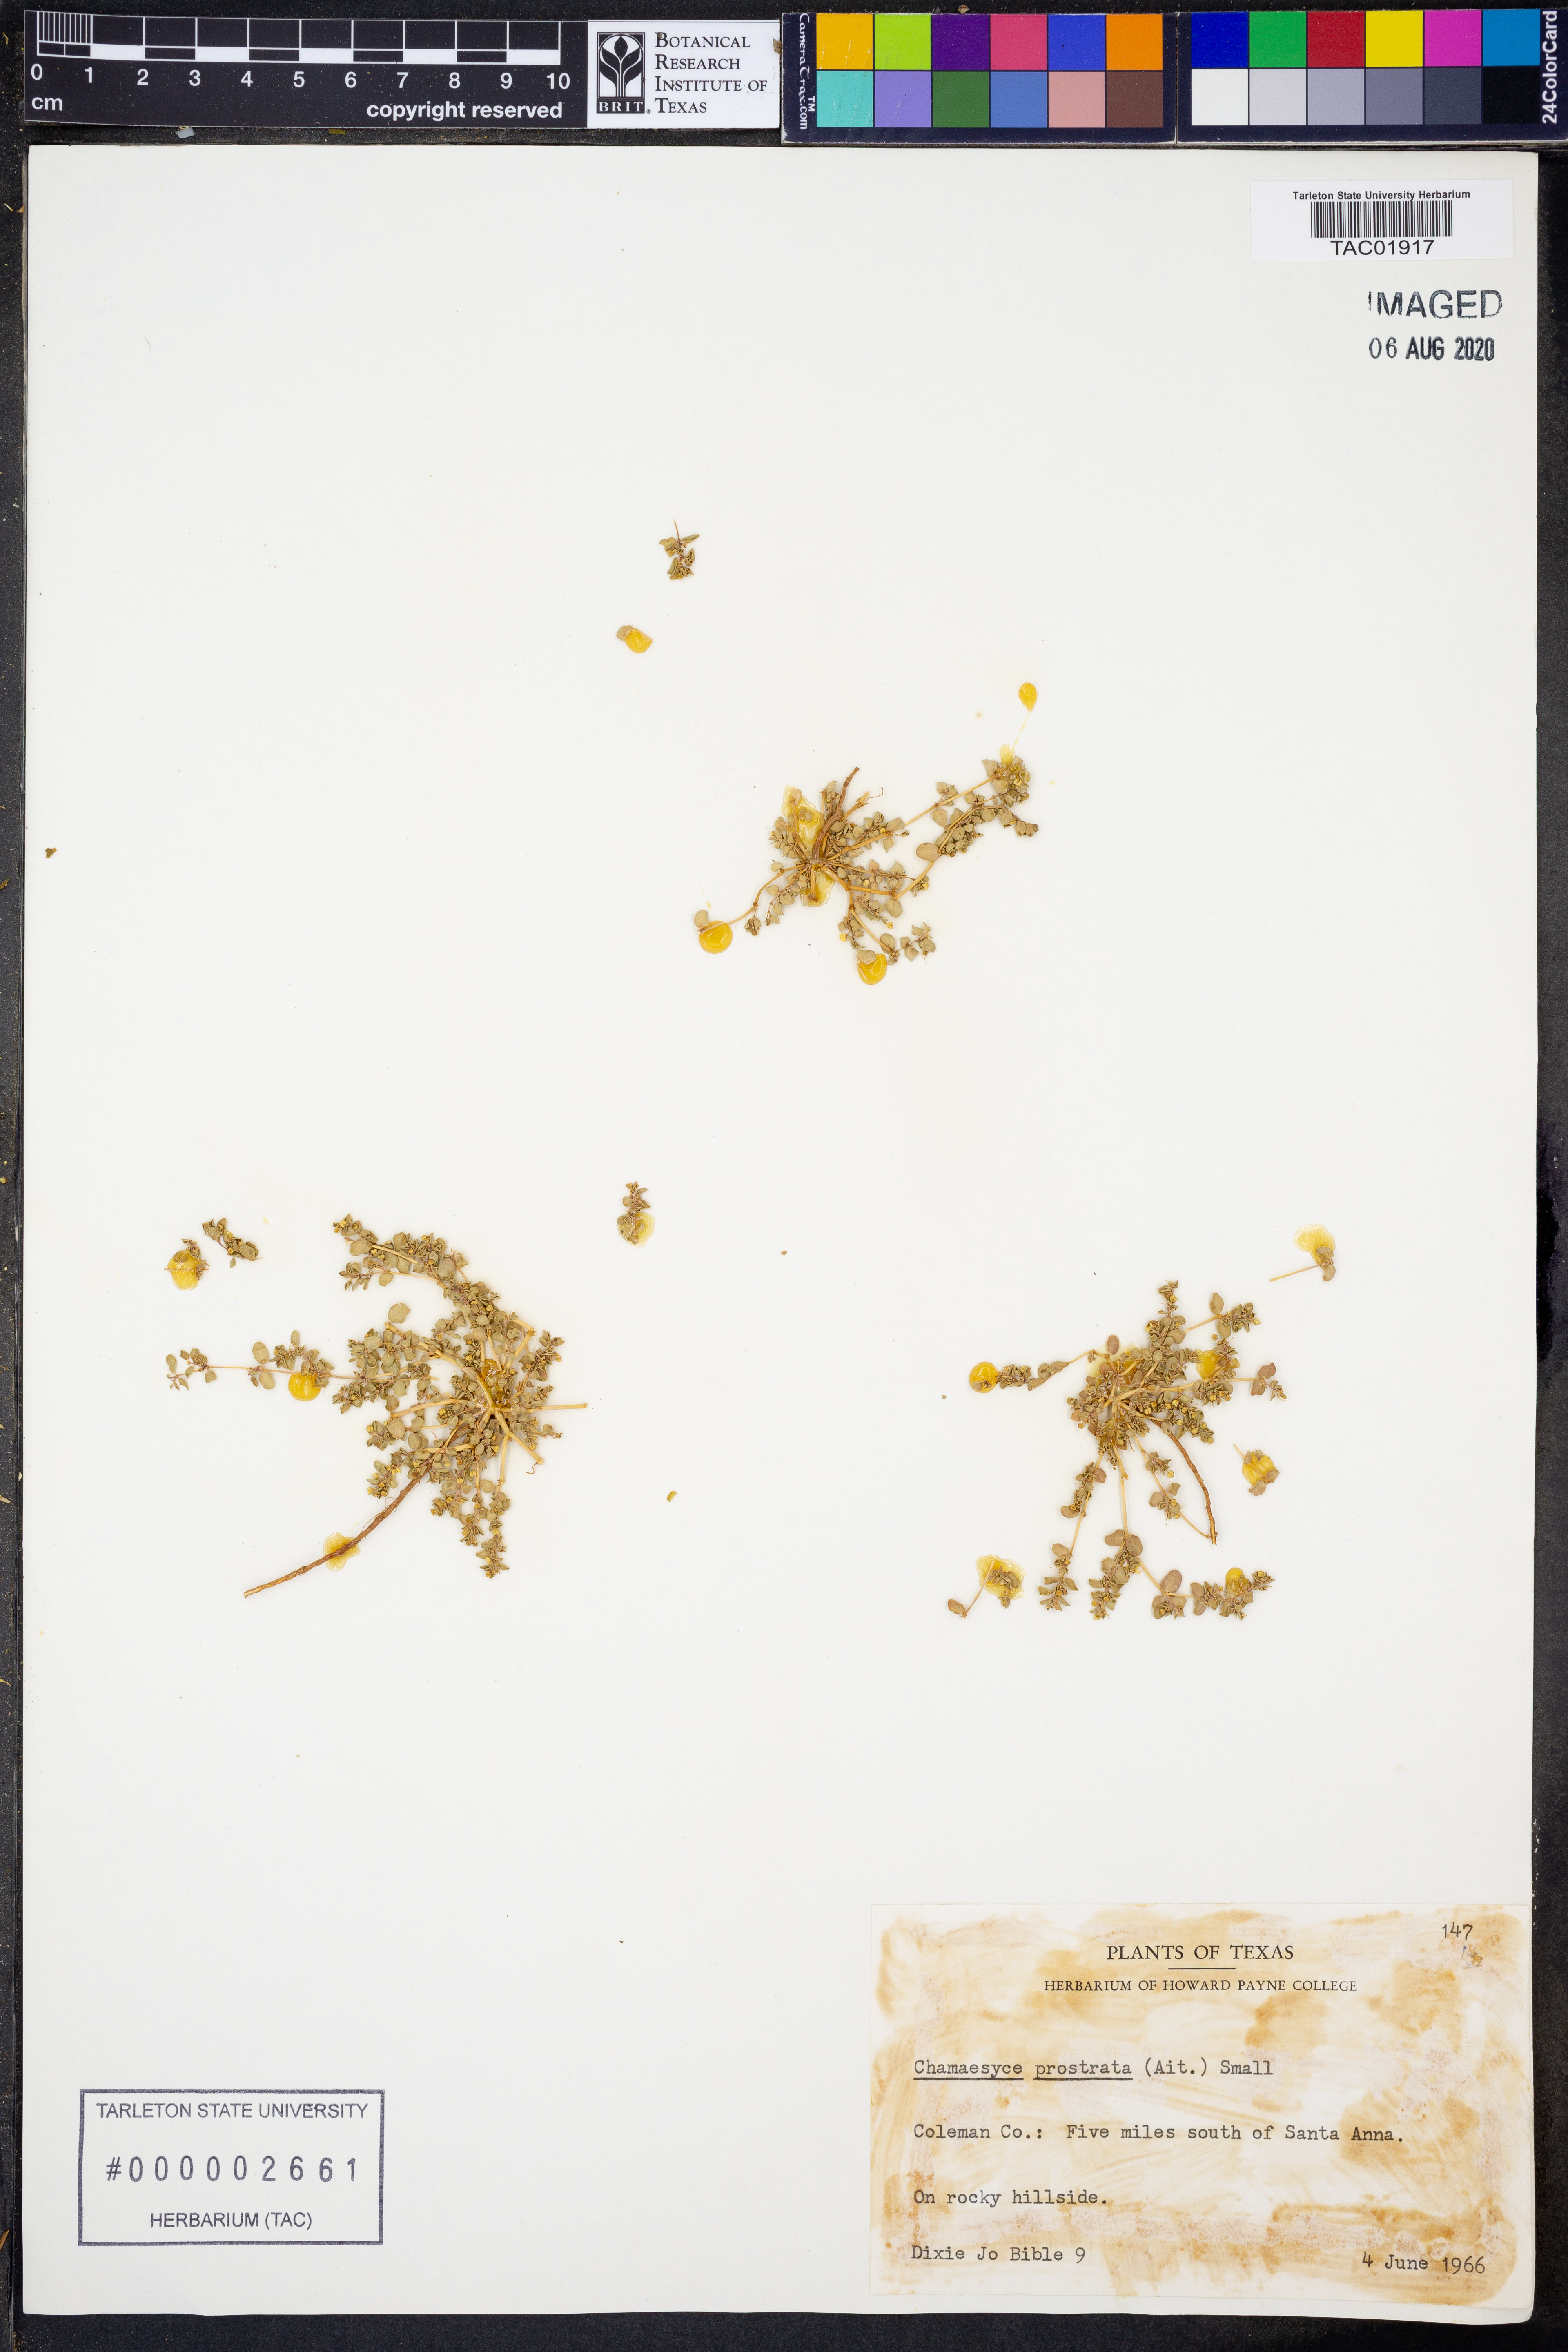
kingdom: Plantae
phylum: Tracheophyta
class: Magnoliopsida
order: Malpighiales
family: Euphorbiaceae
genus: Euphorbia
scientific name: Euphorbia prostrata
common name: Prostrate sandmat
